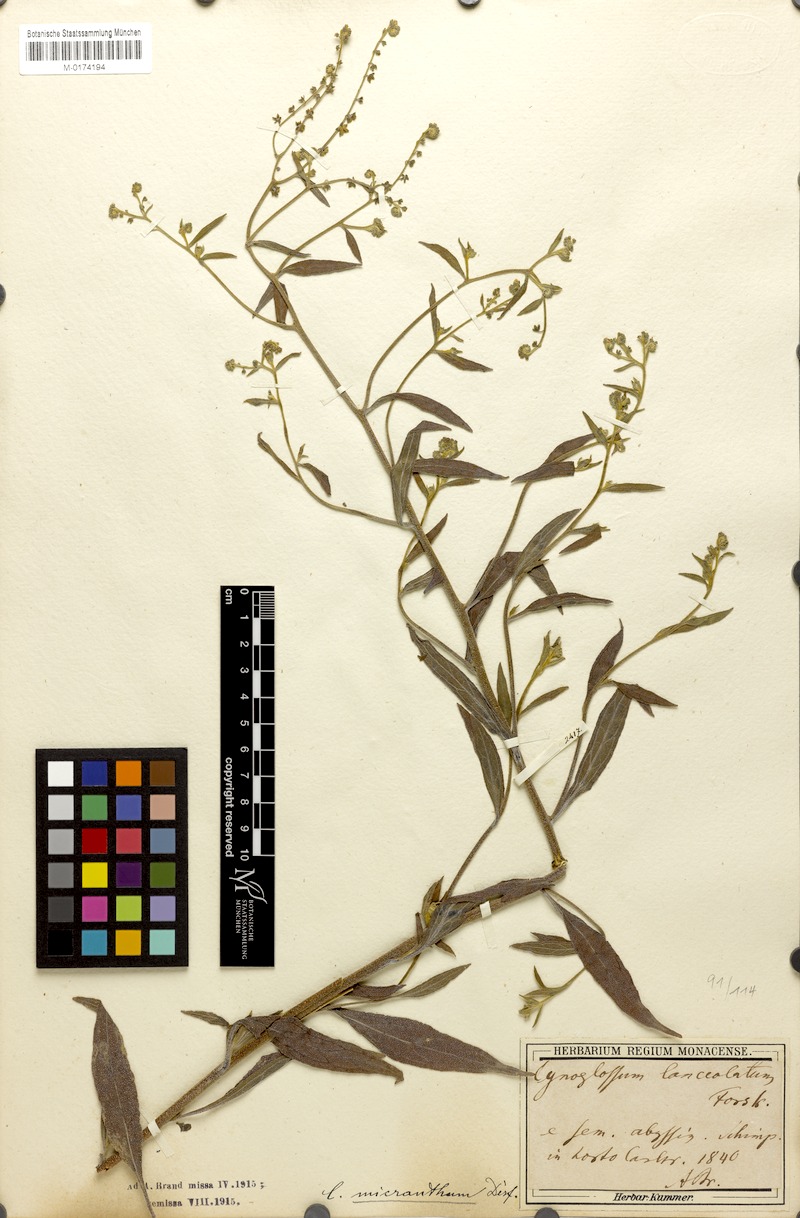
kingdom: Plantae
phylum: Tracheophyta
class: Magnoliopsida
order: Boraginales
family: Boraginaceae
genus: Paracynoglossum
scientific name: Paracynoglossum lanceolatum
